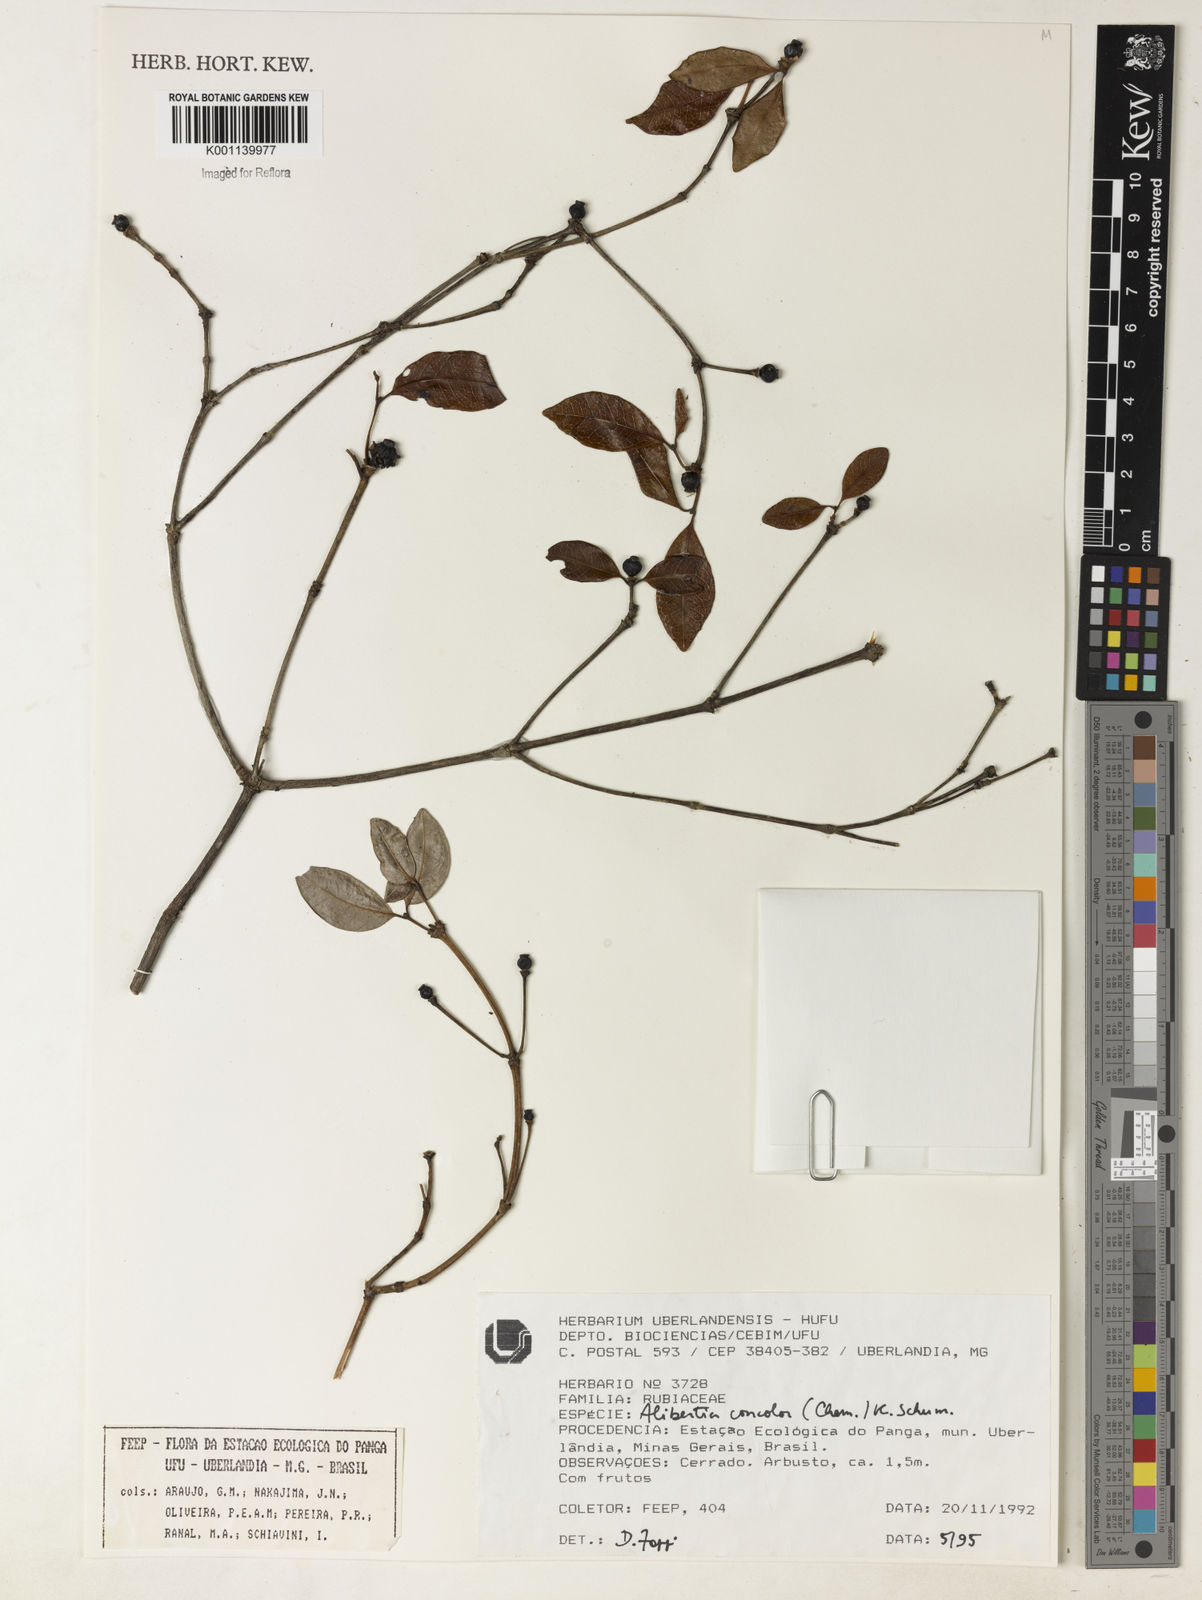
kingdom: Plantae
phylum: Tracheophyta
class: Magnoliopsida
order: Gentianales
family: Rubiaceae
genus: Cordiera
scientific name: Cordiera concolor
